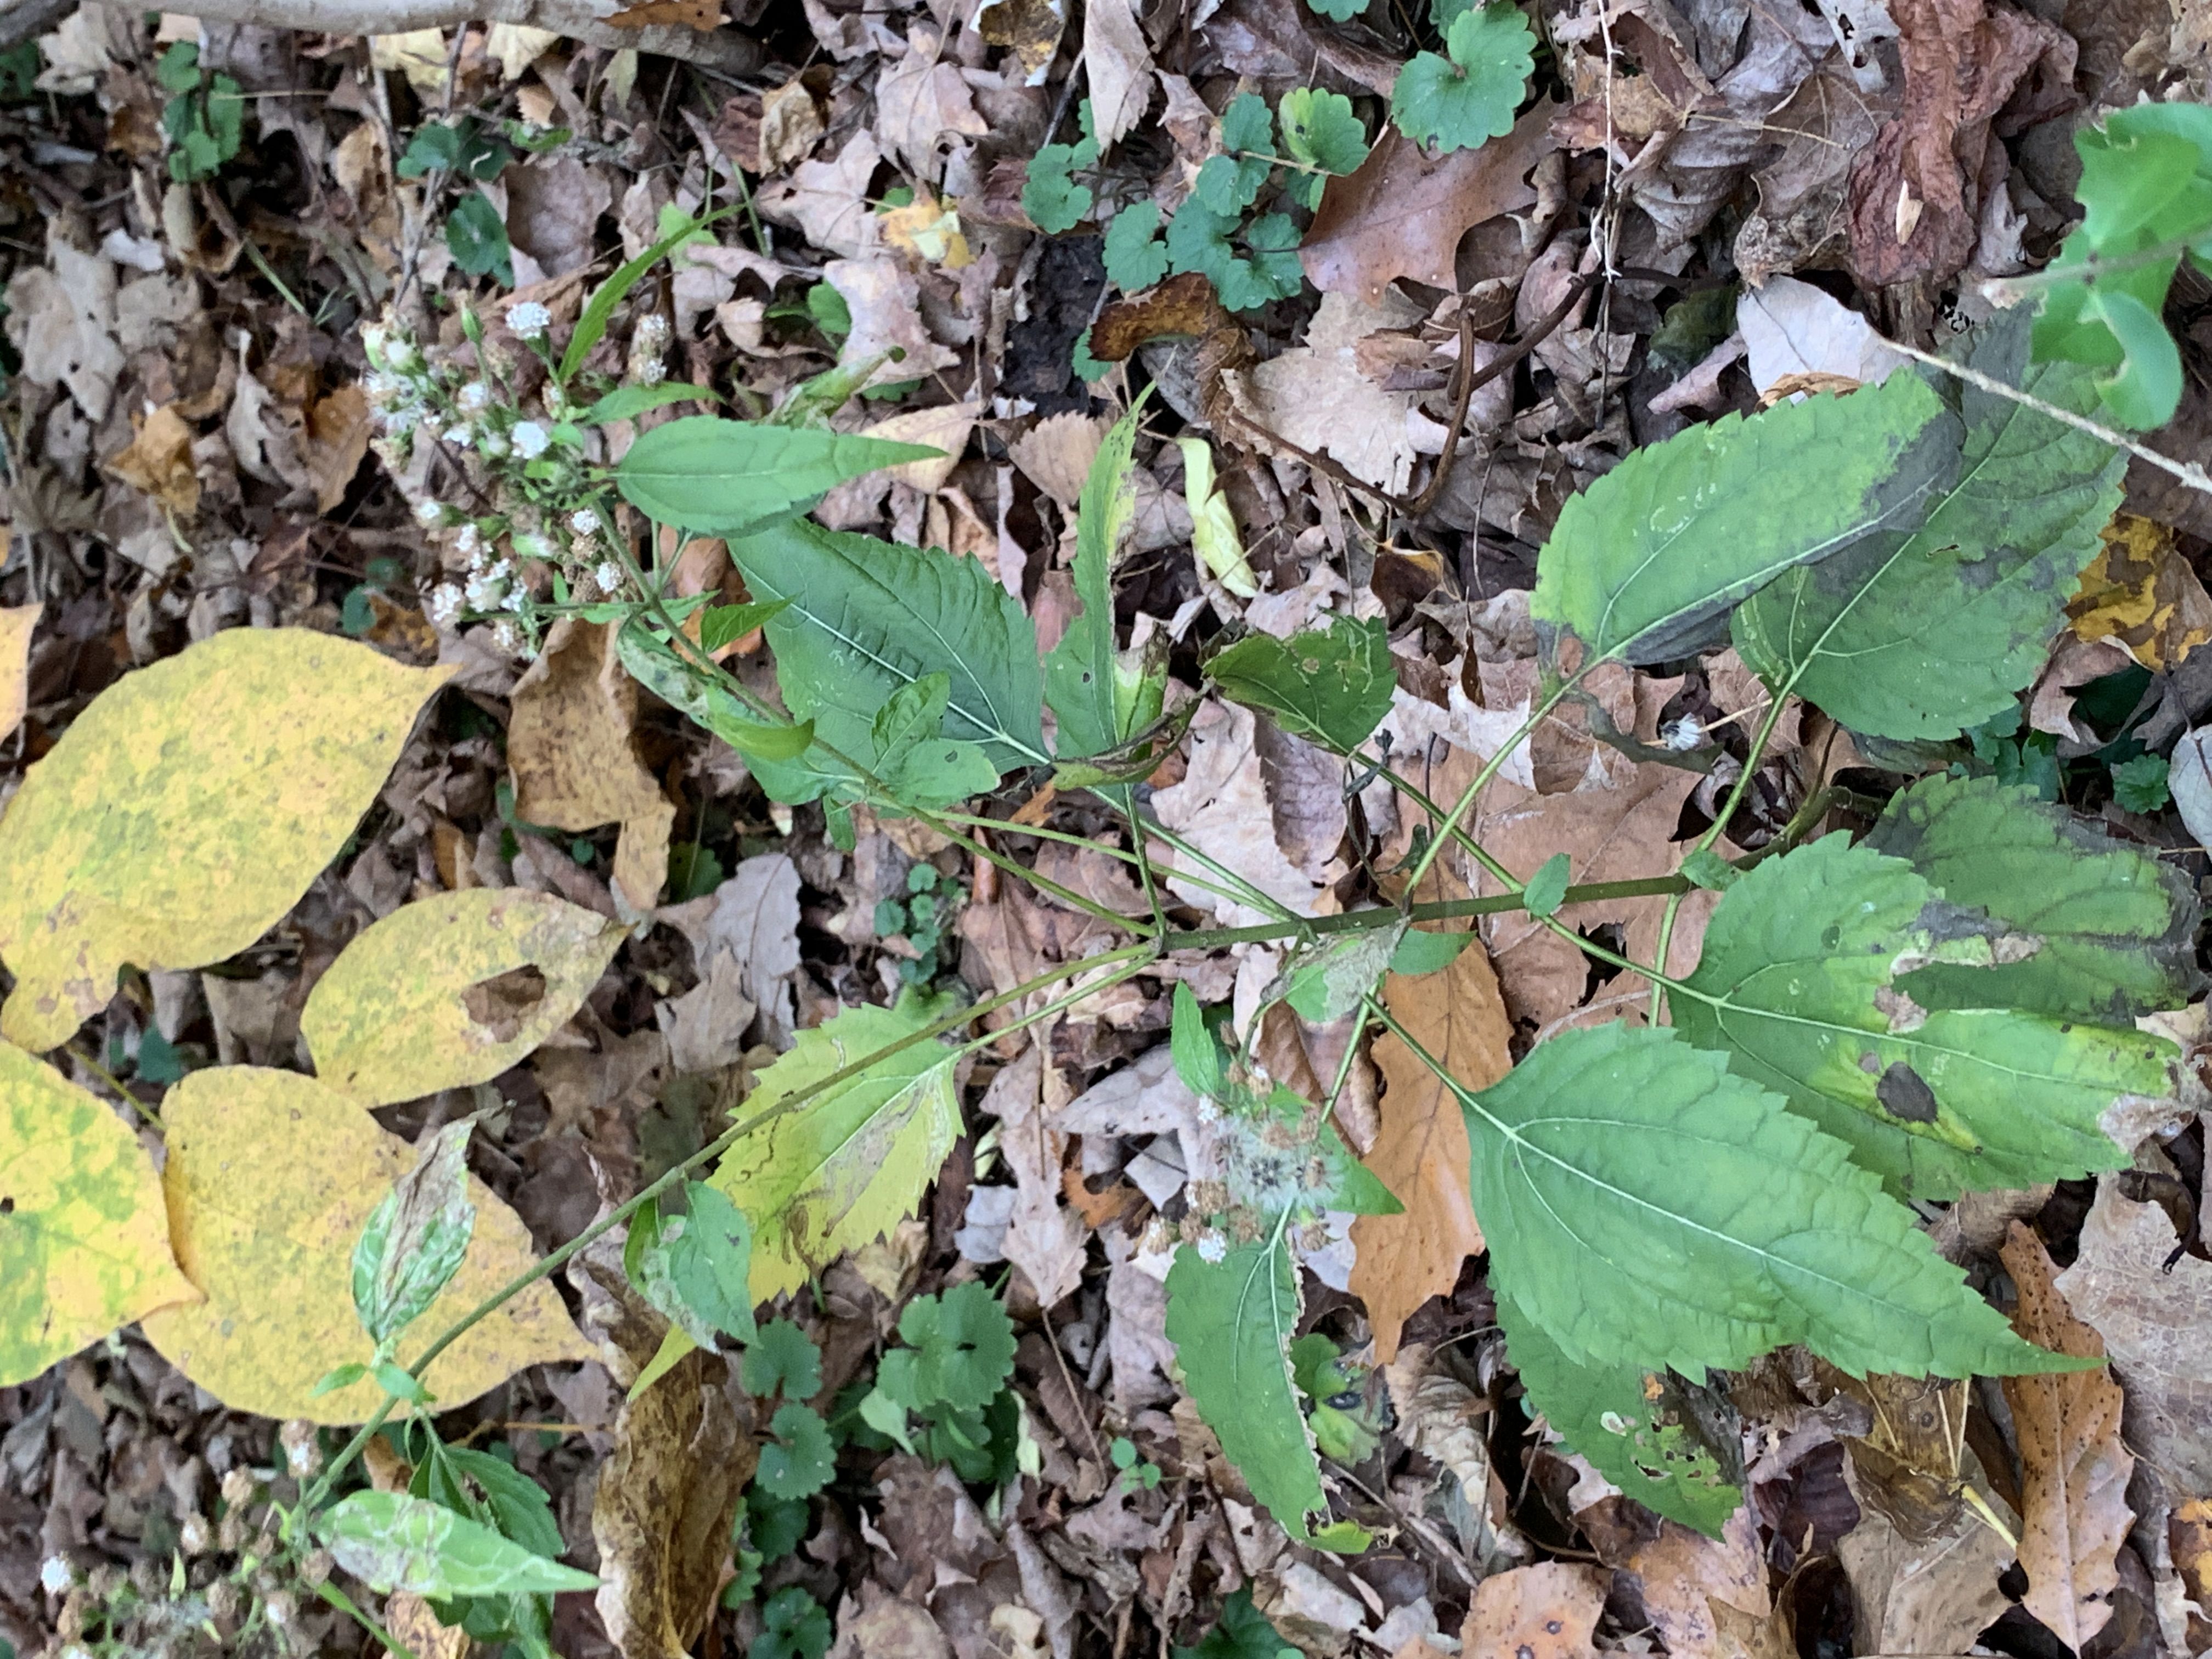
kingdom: Plantae
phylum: Tracheophyta
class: Magnoliopsida
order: Asterales
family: Asteraceae
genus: Ageratina
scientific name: Ageratina altissima
